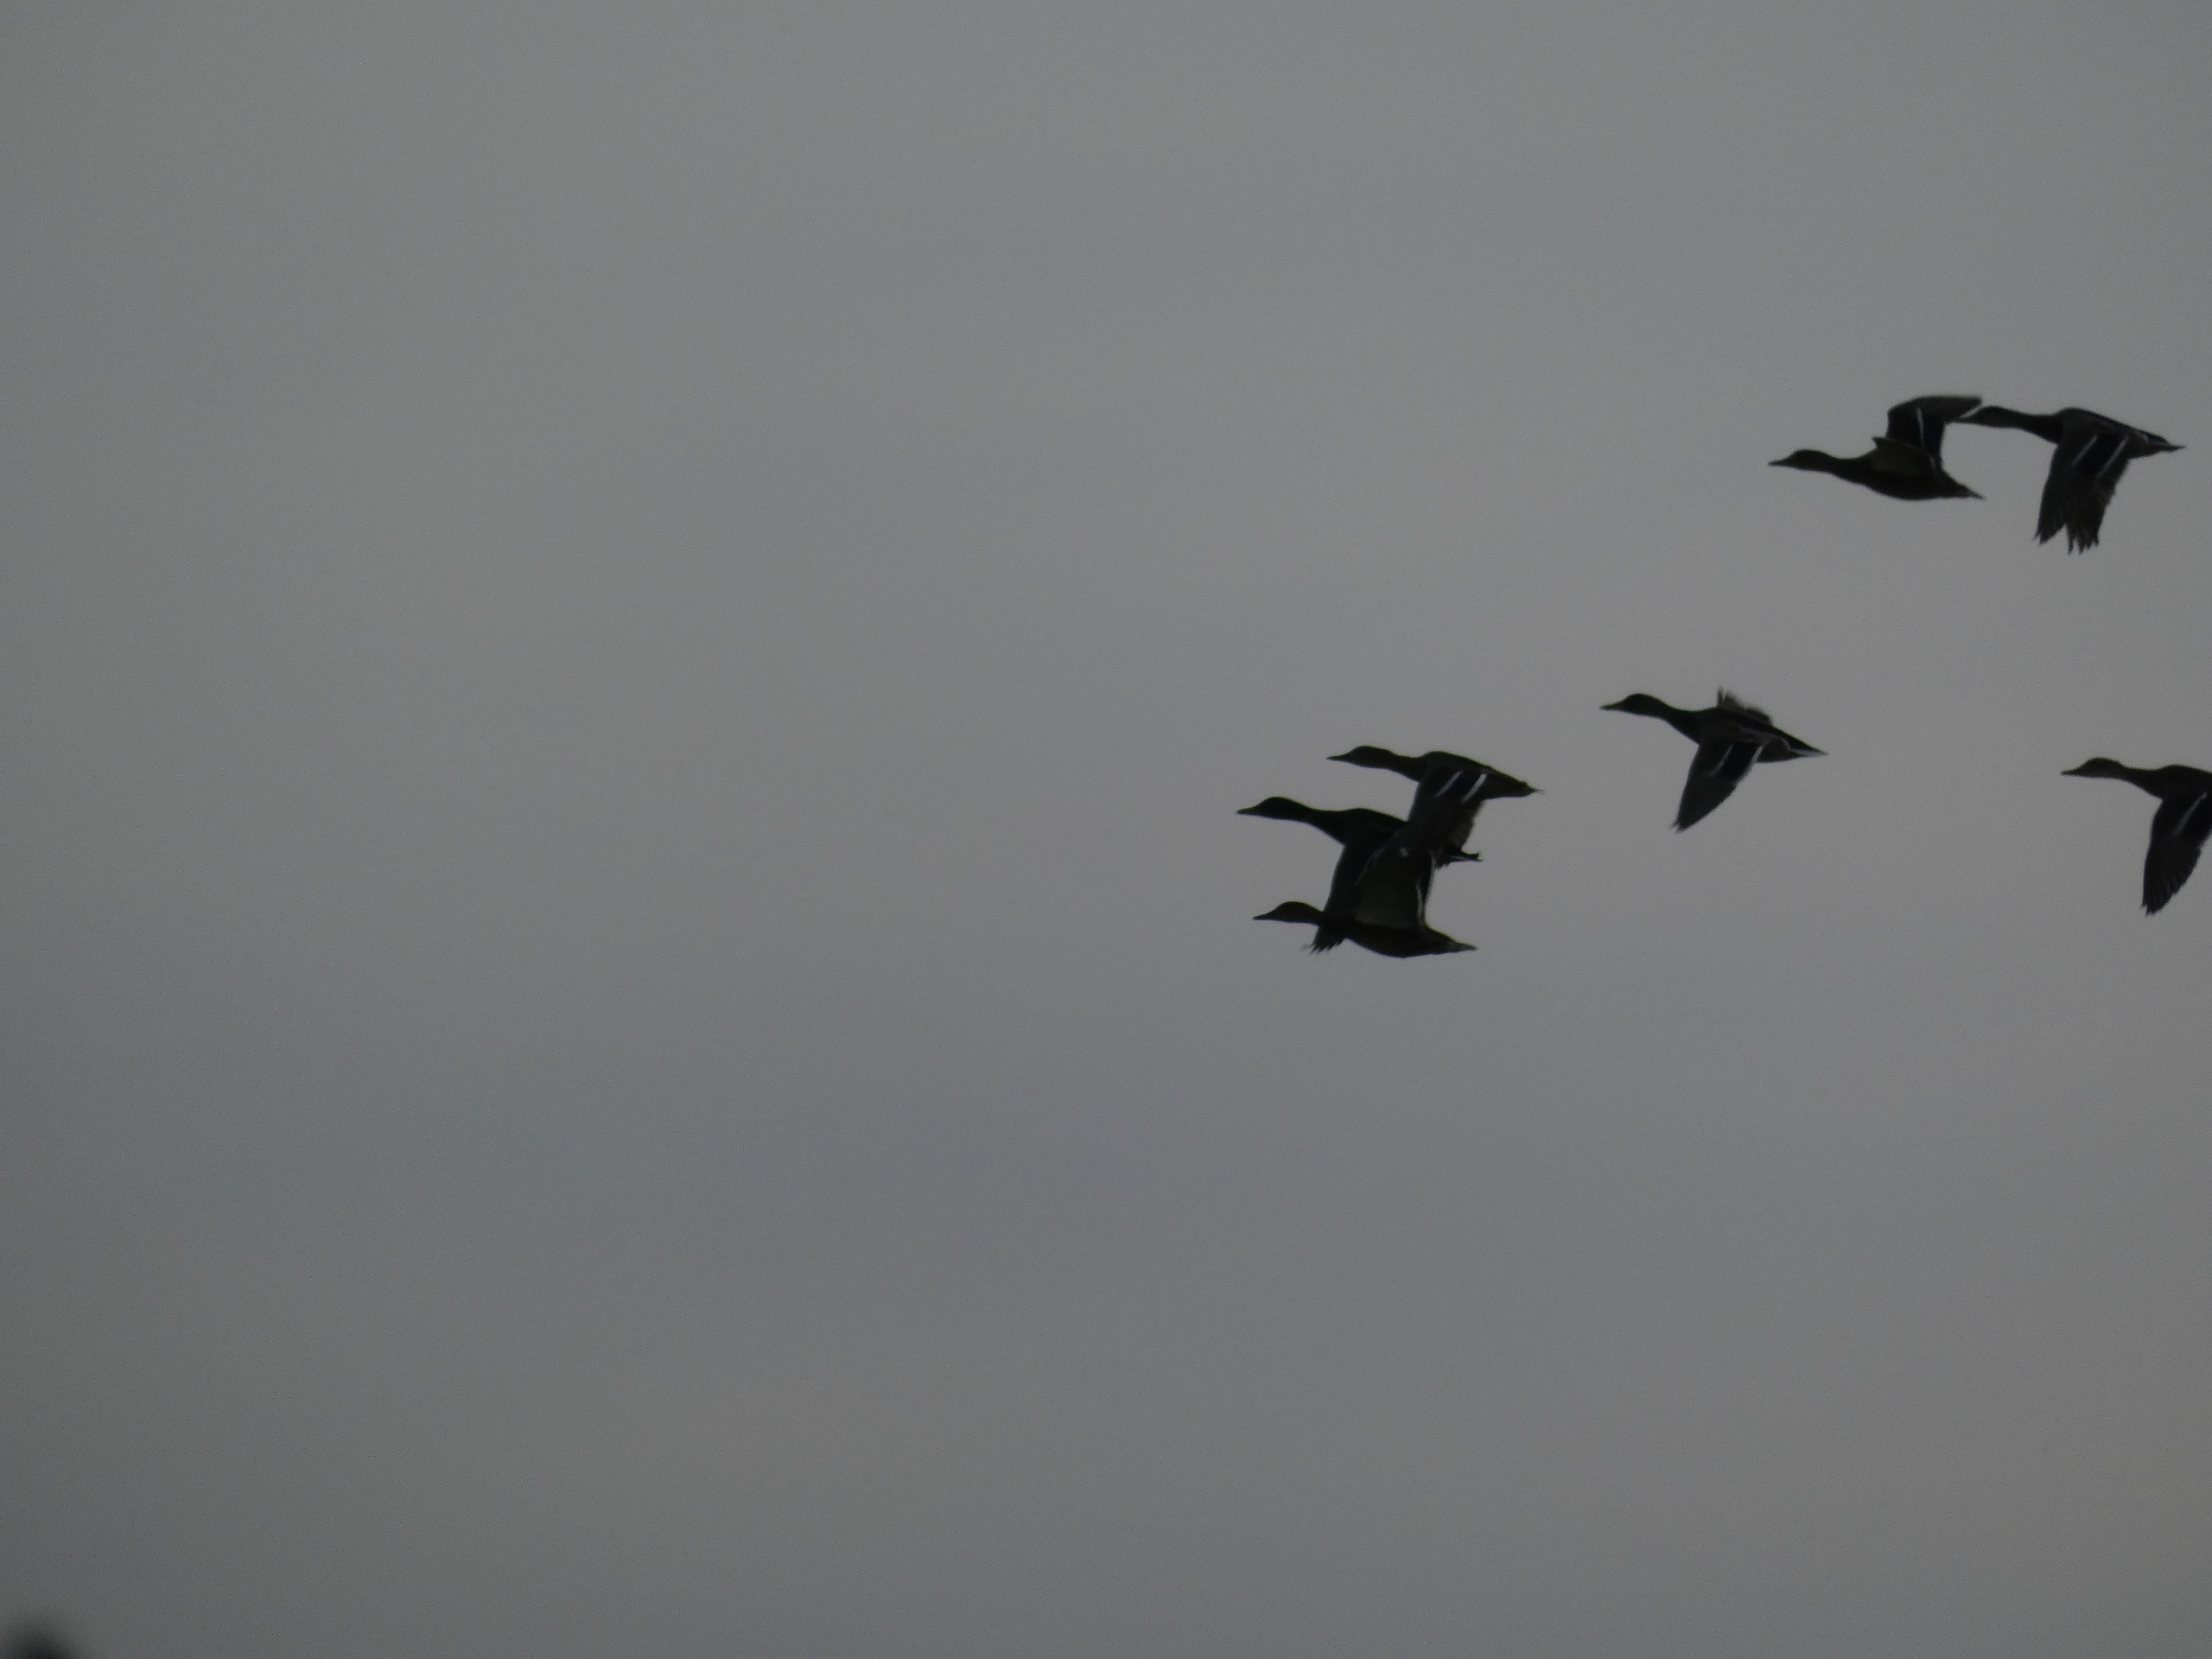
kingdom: Animalia
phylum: Chordata
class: Aves
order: Anseriformes
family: Anatidae
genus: Anas
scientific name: Anas platyrhynchos
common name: Gråand
